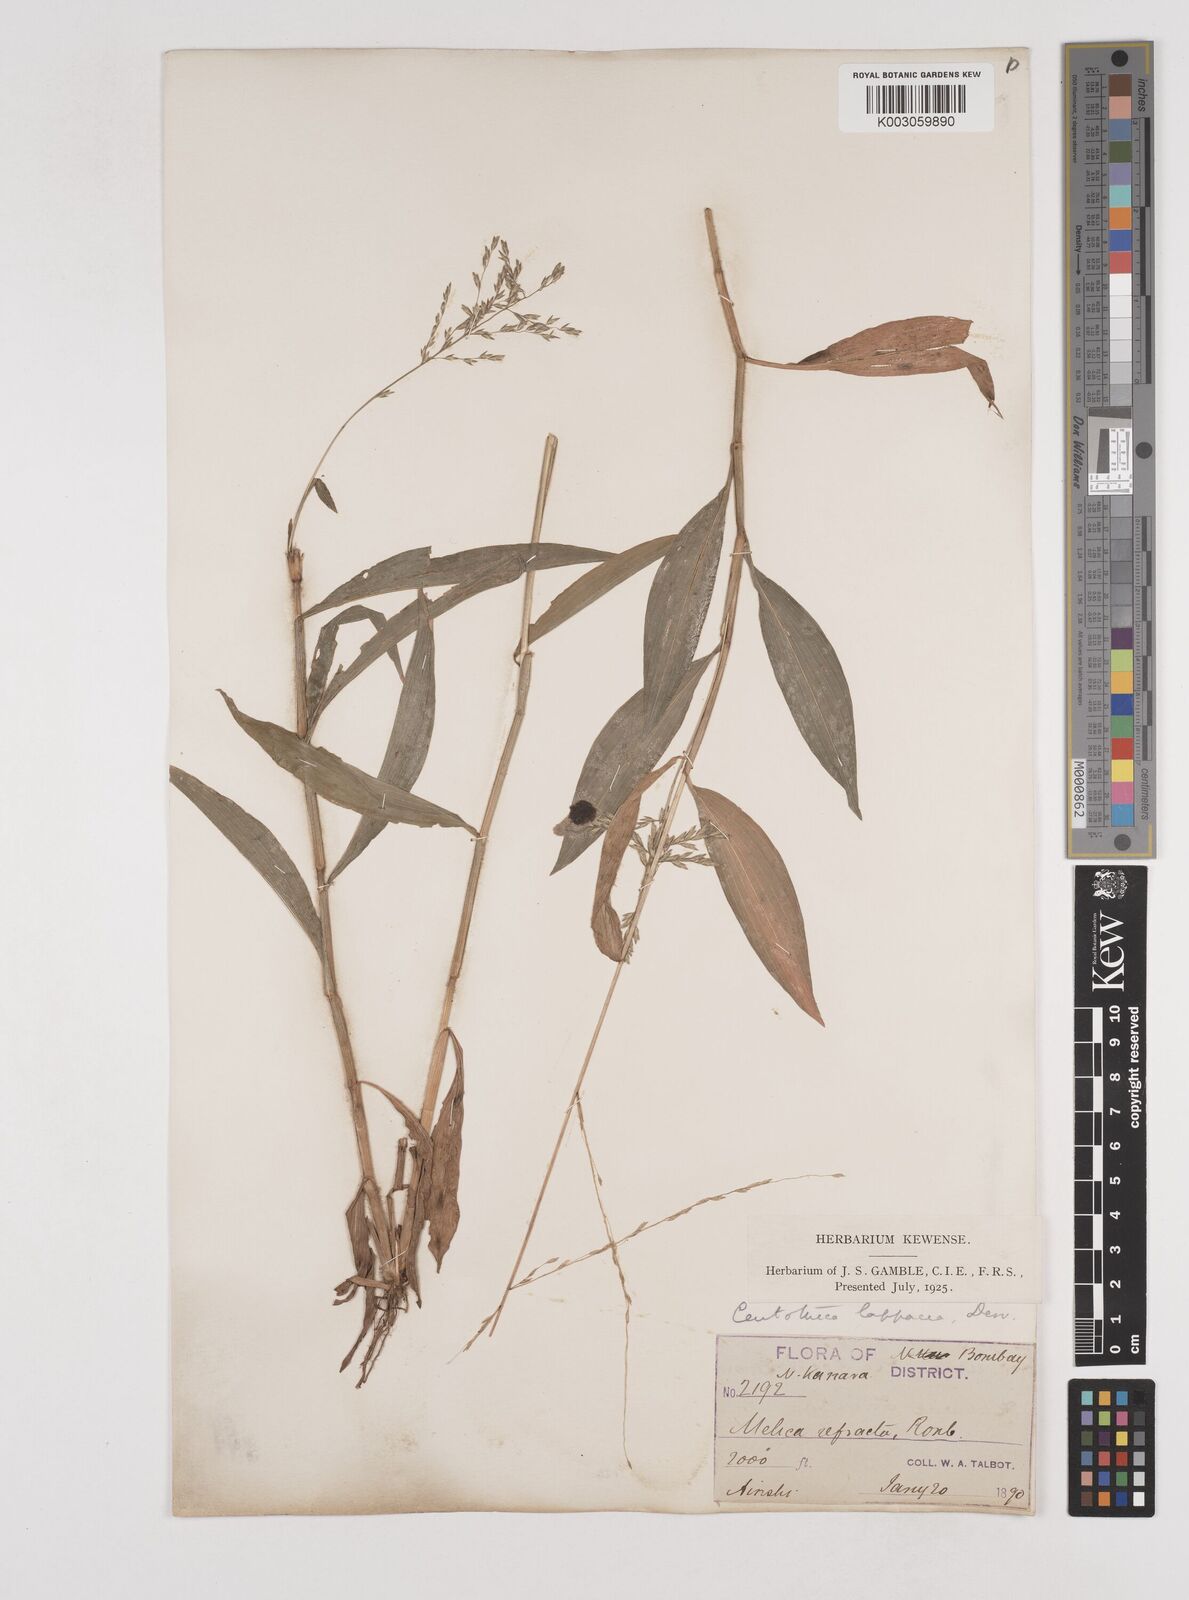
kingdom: Plantae
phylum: Tracheophyta
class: Liliopsida
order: Poales
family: Poaceae
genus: Centotheca
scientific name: Centotheca lappacea
